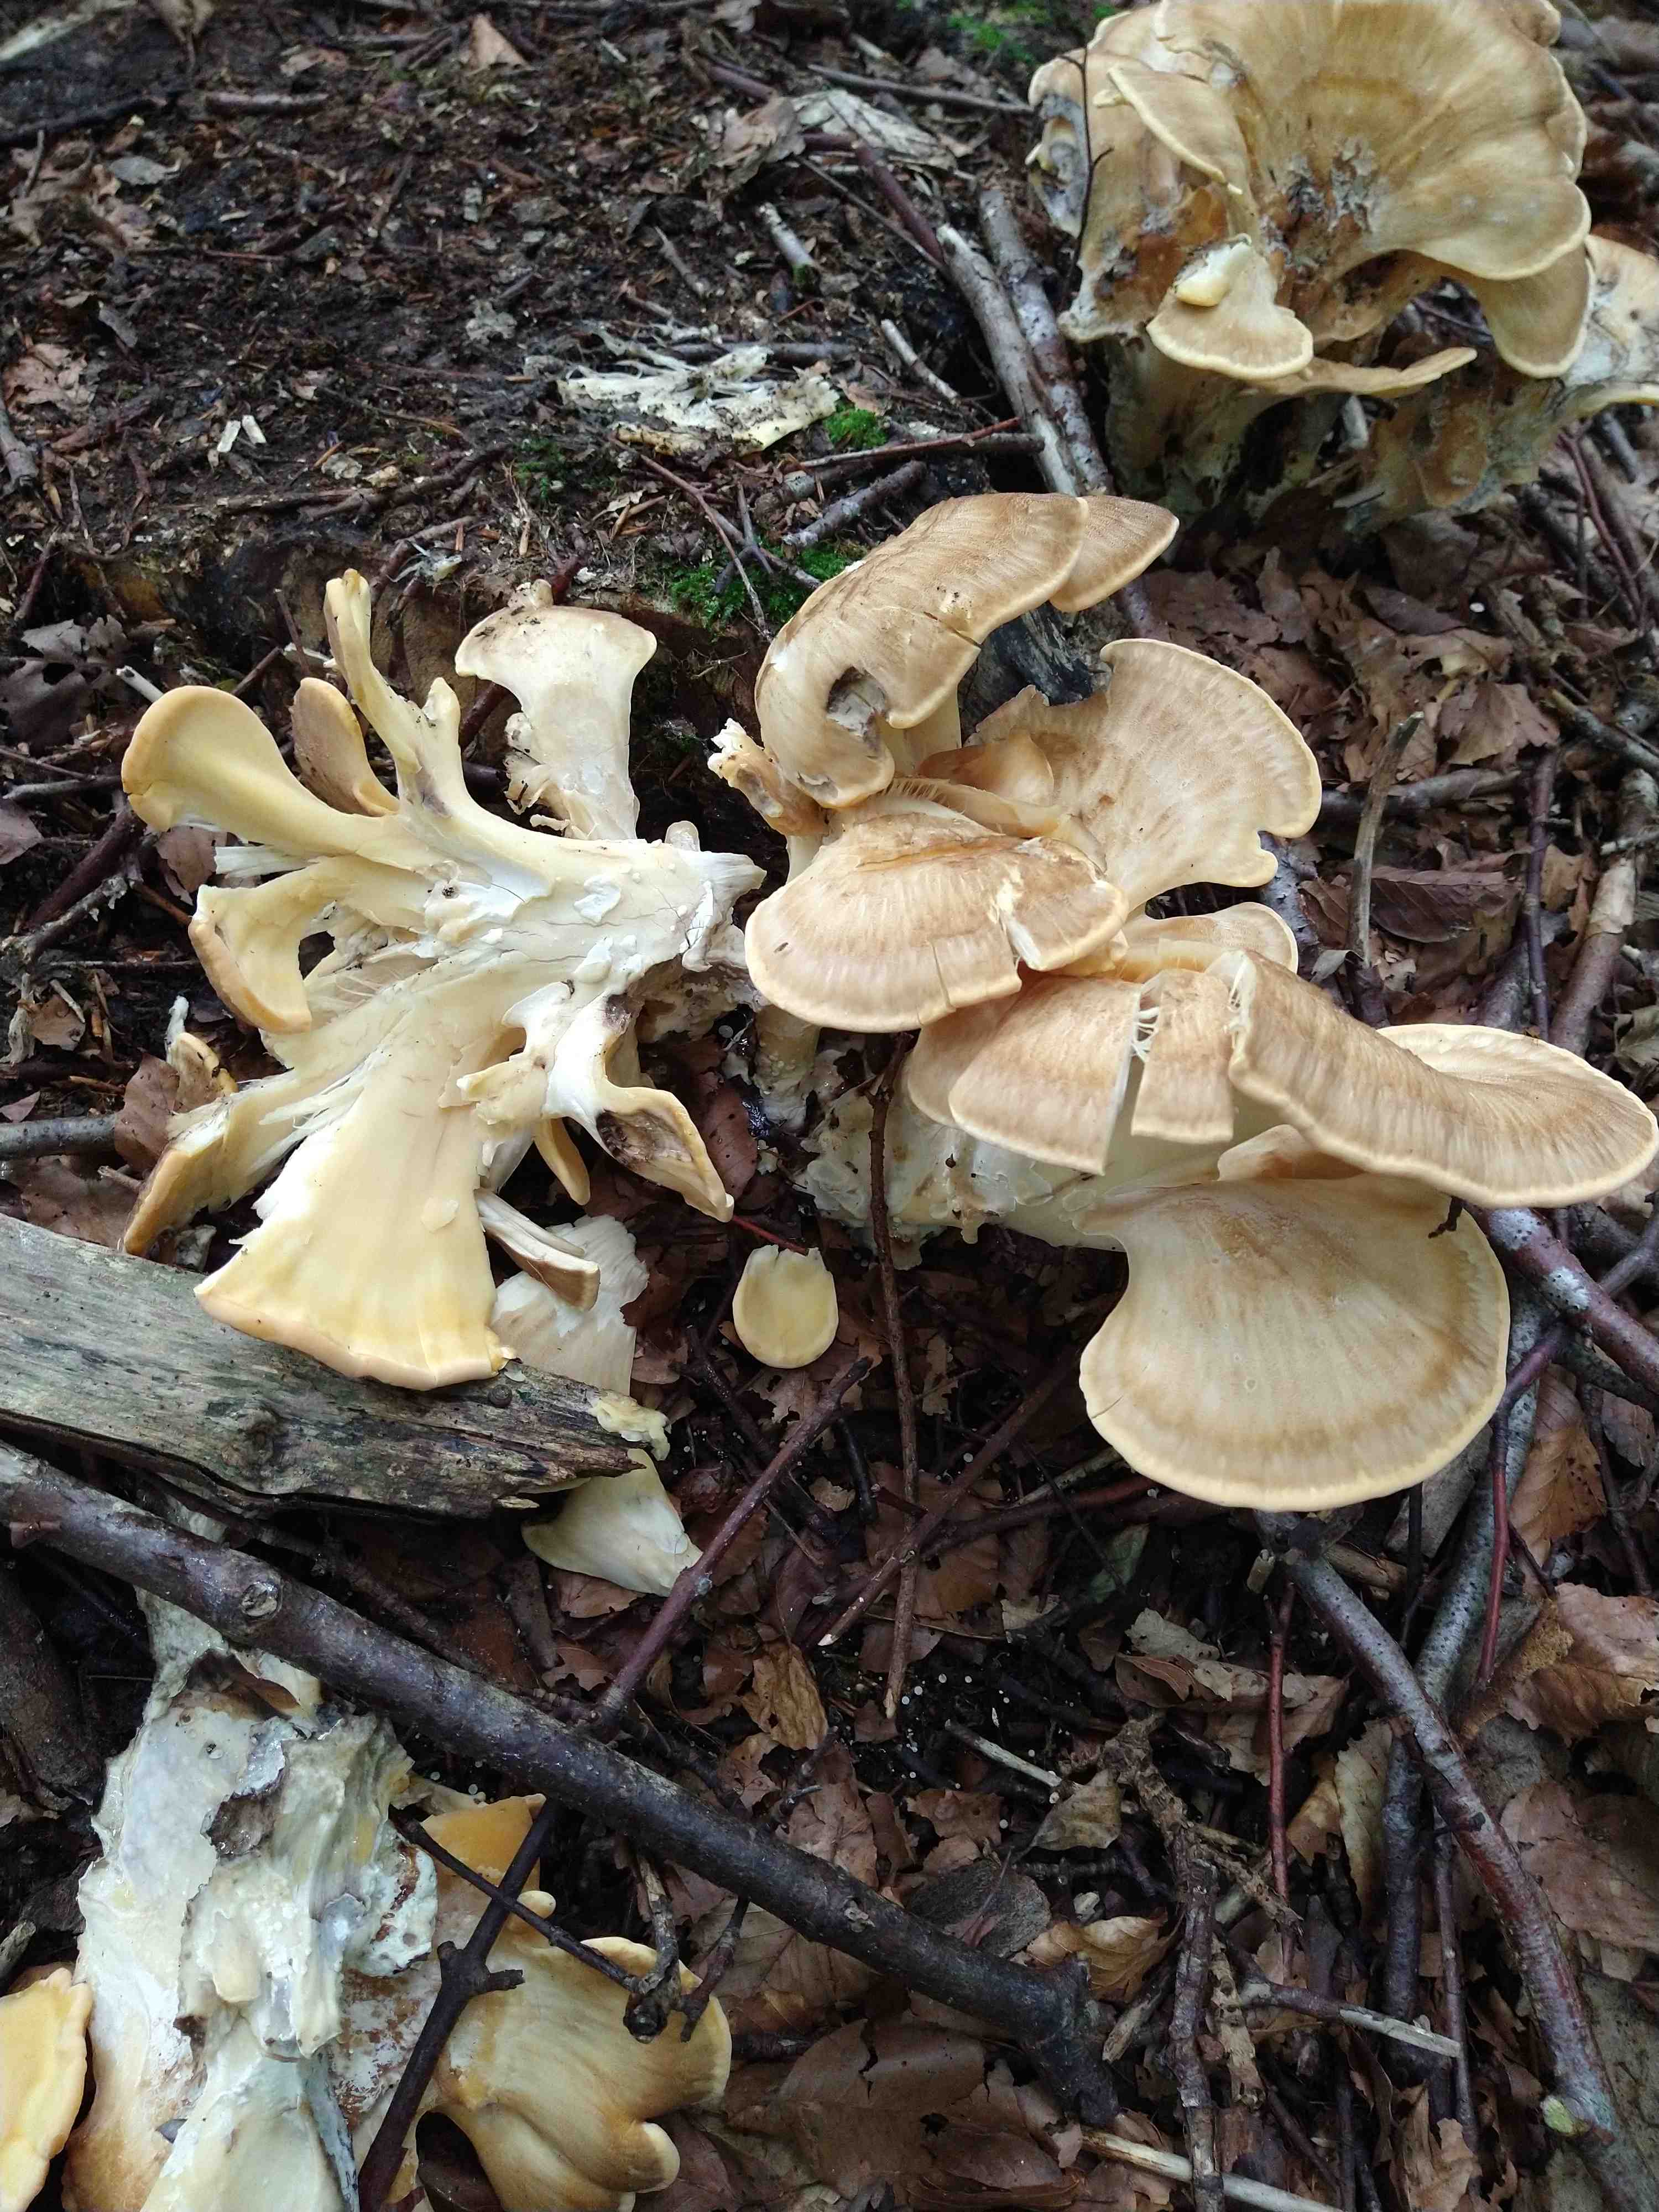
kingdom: Fungi
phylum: Basidiomycota
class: Agaricomycetes
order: Polyporales
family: Meripilaceae
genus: Meripilus
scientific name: Meripilus giganteus
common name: kæmpeporesvamp
